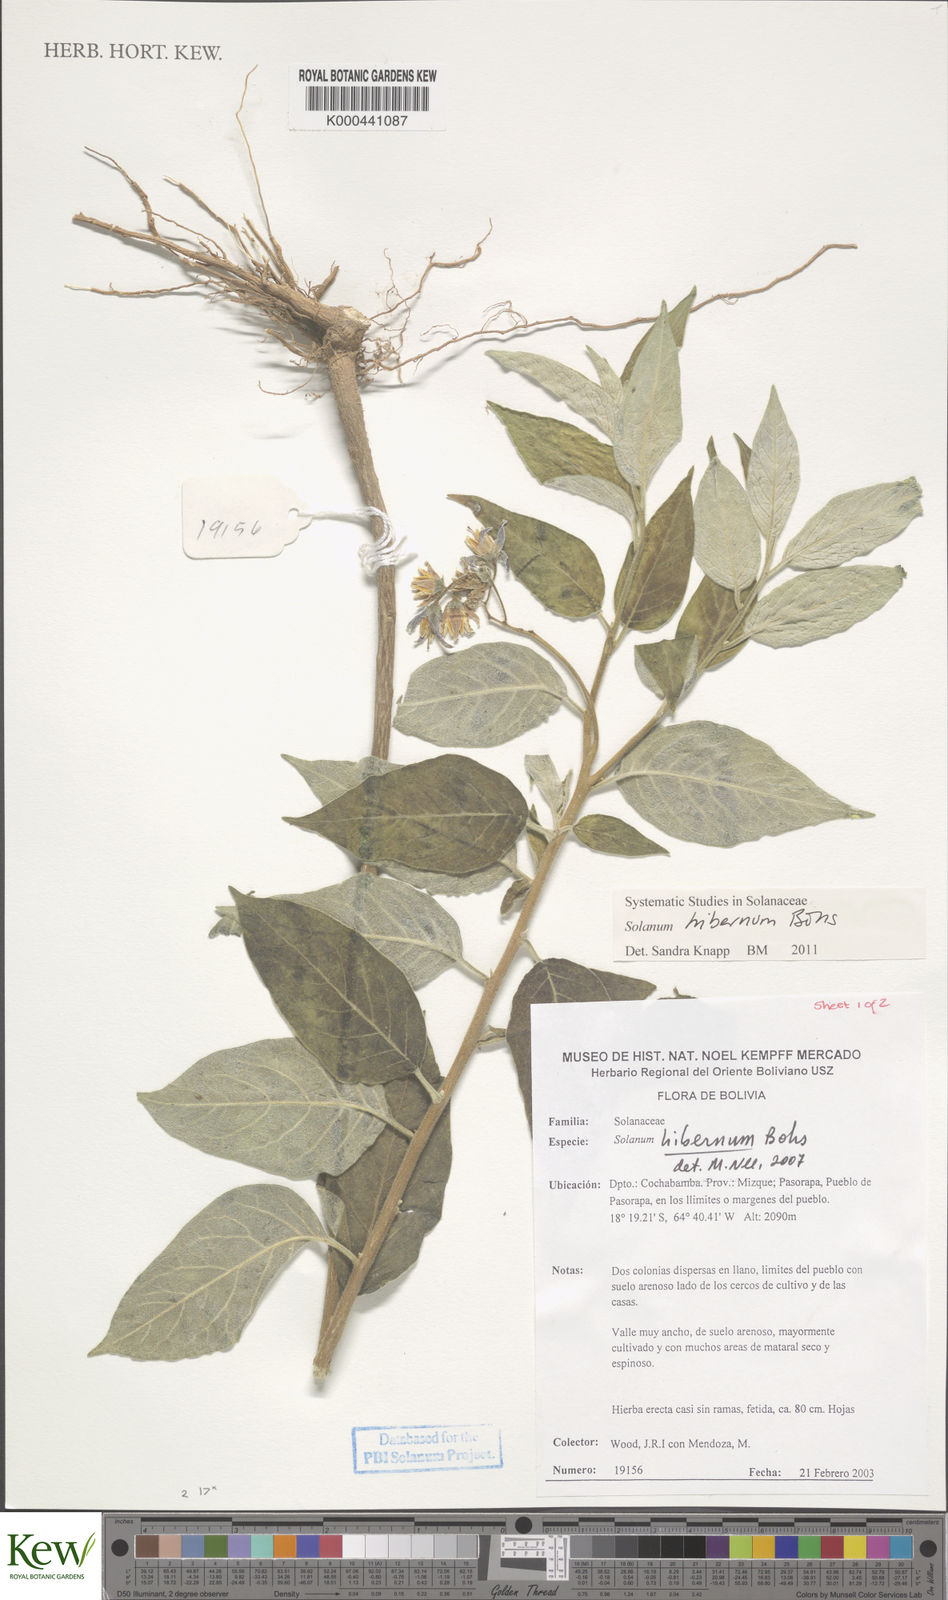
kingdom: Plantae
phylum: Tracheophyta
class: Magnoliopsida
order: Solanales
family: Solanaceae
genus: Solanum
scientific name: Solanum hibernum
